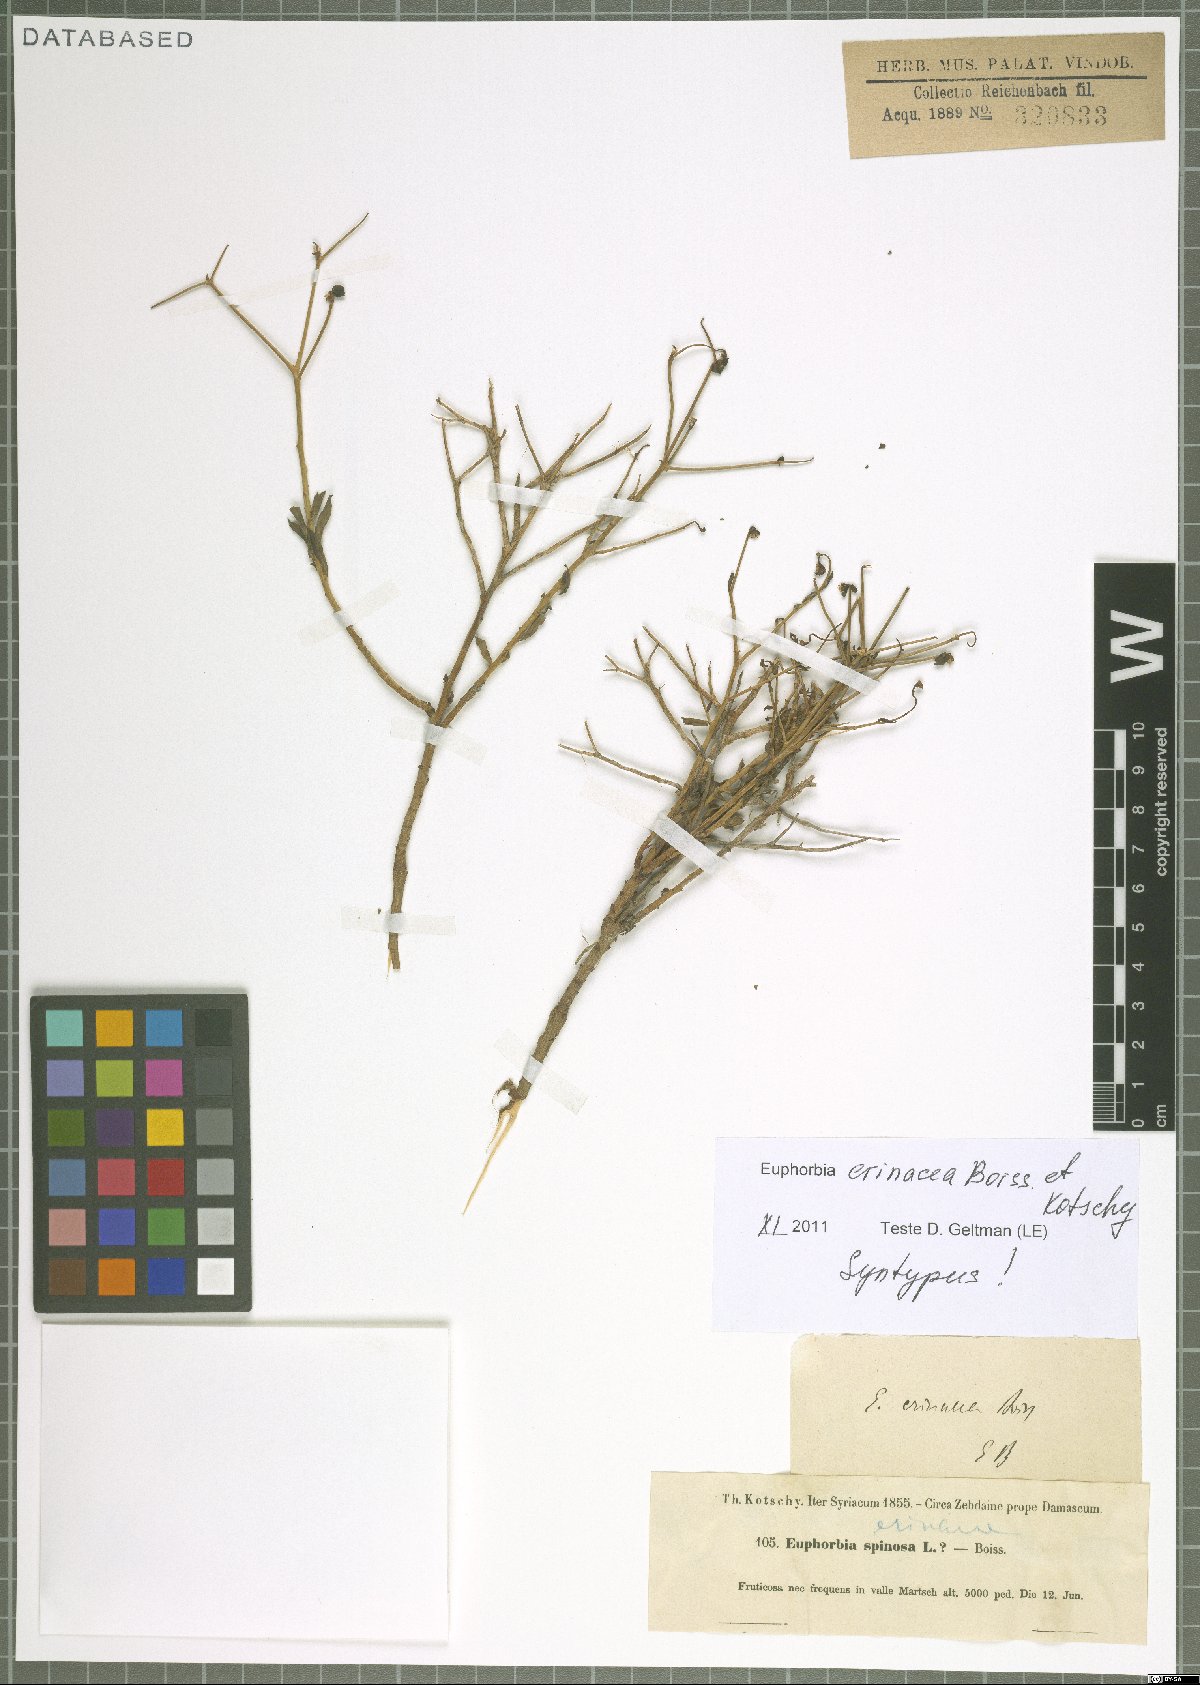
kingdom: Plantae
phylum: Tracheophyta
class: Magnoliopsida
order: Malpighiales
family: Euphorbiaceae
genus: Euphorbia
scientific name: Euphorbia erinacea
